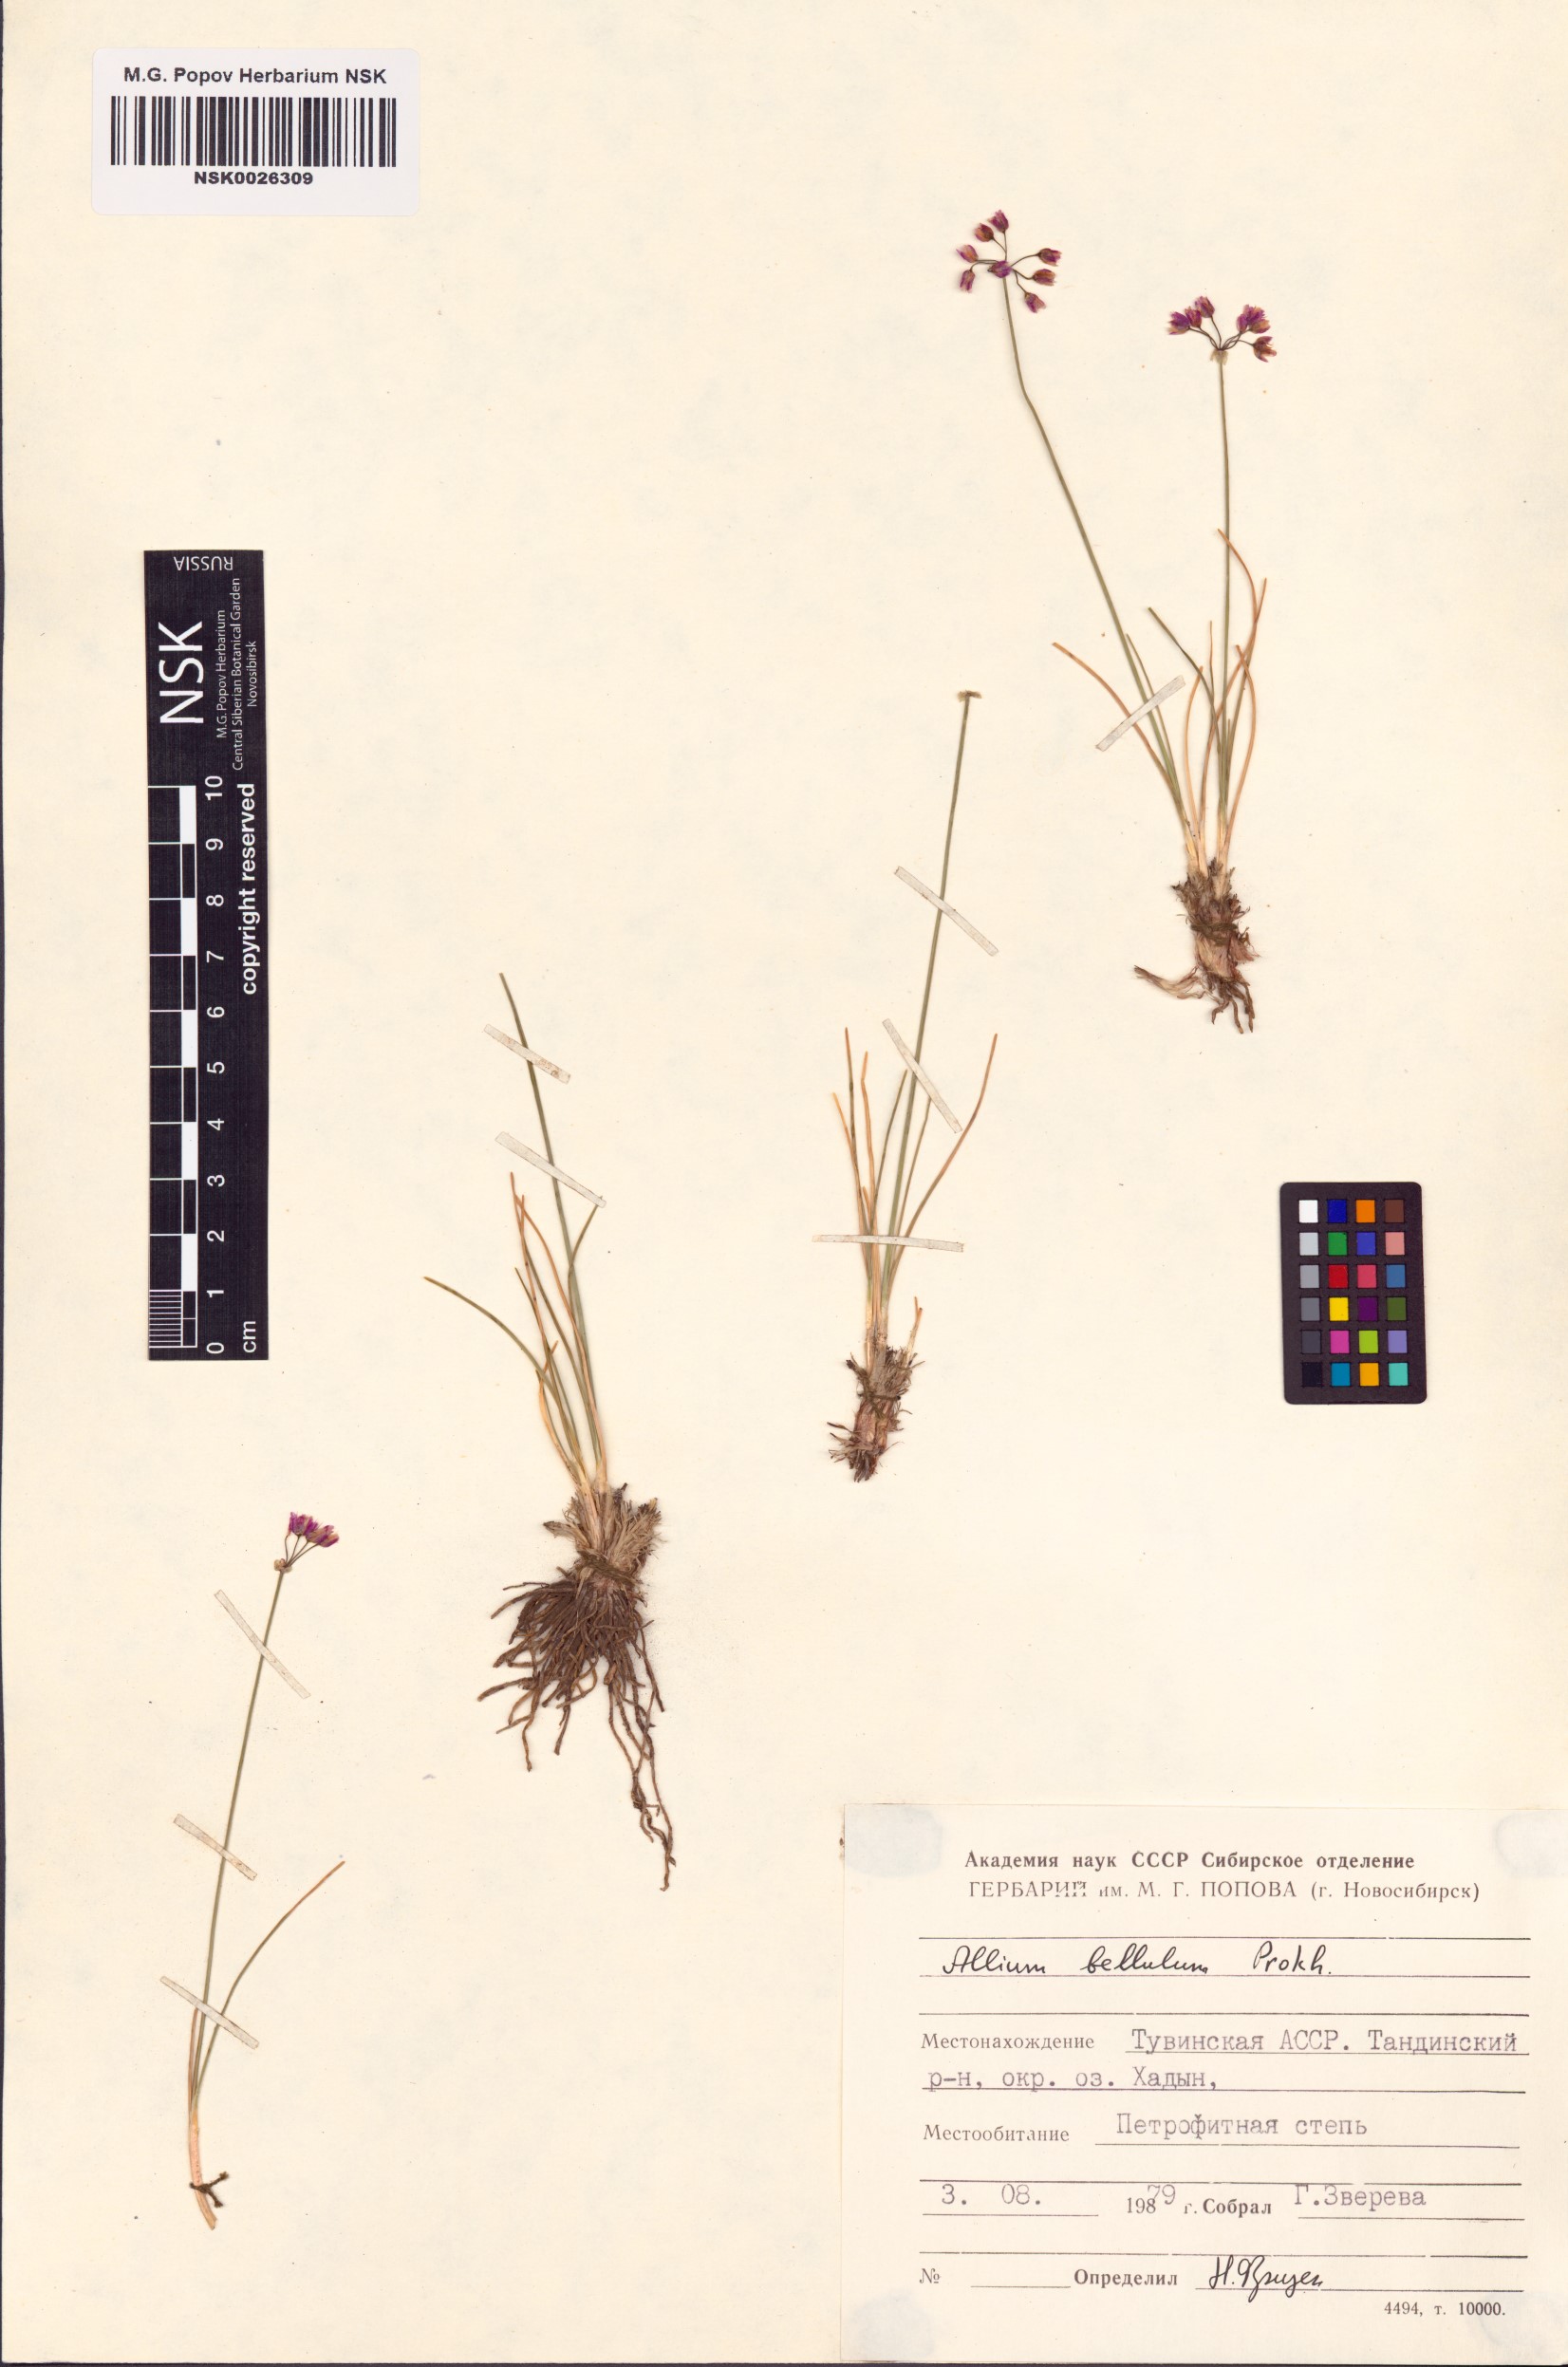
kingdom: Plantae
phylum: Tracheophyta
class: Liliopsida
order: Asparagales
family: Amaryllidaceae
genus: Allium
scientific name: Allium bellulum
